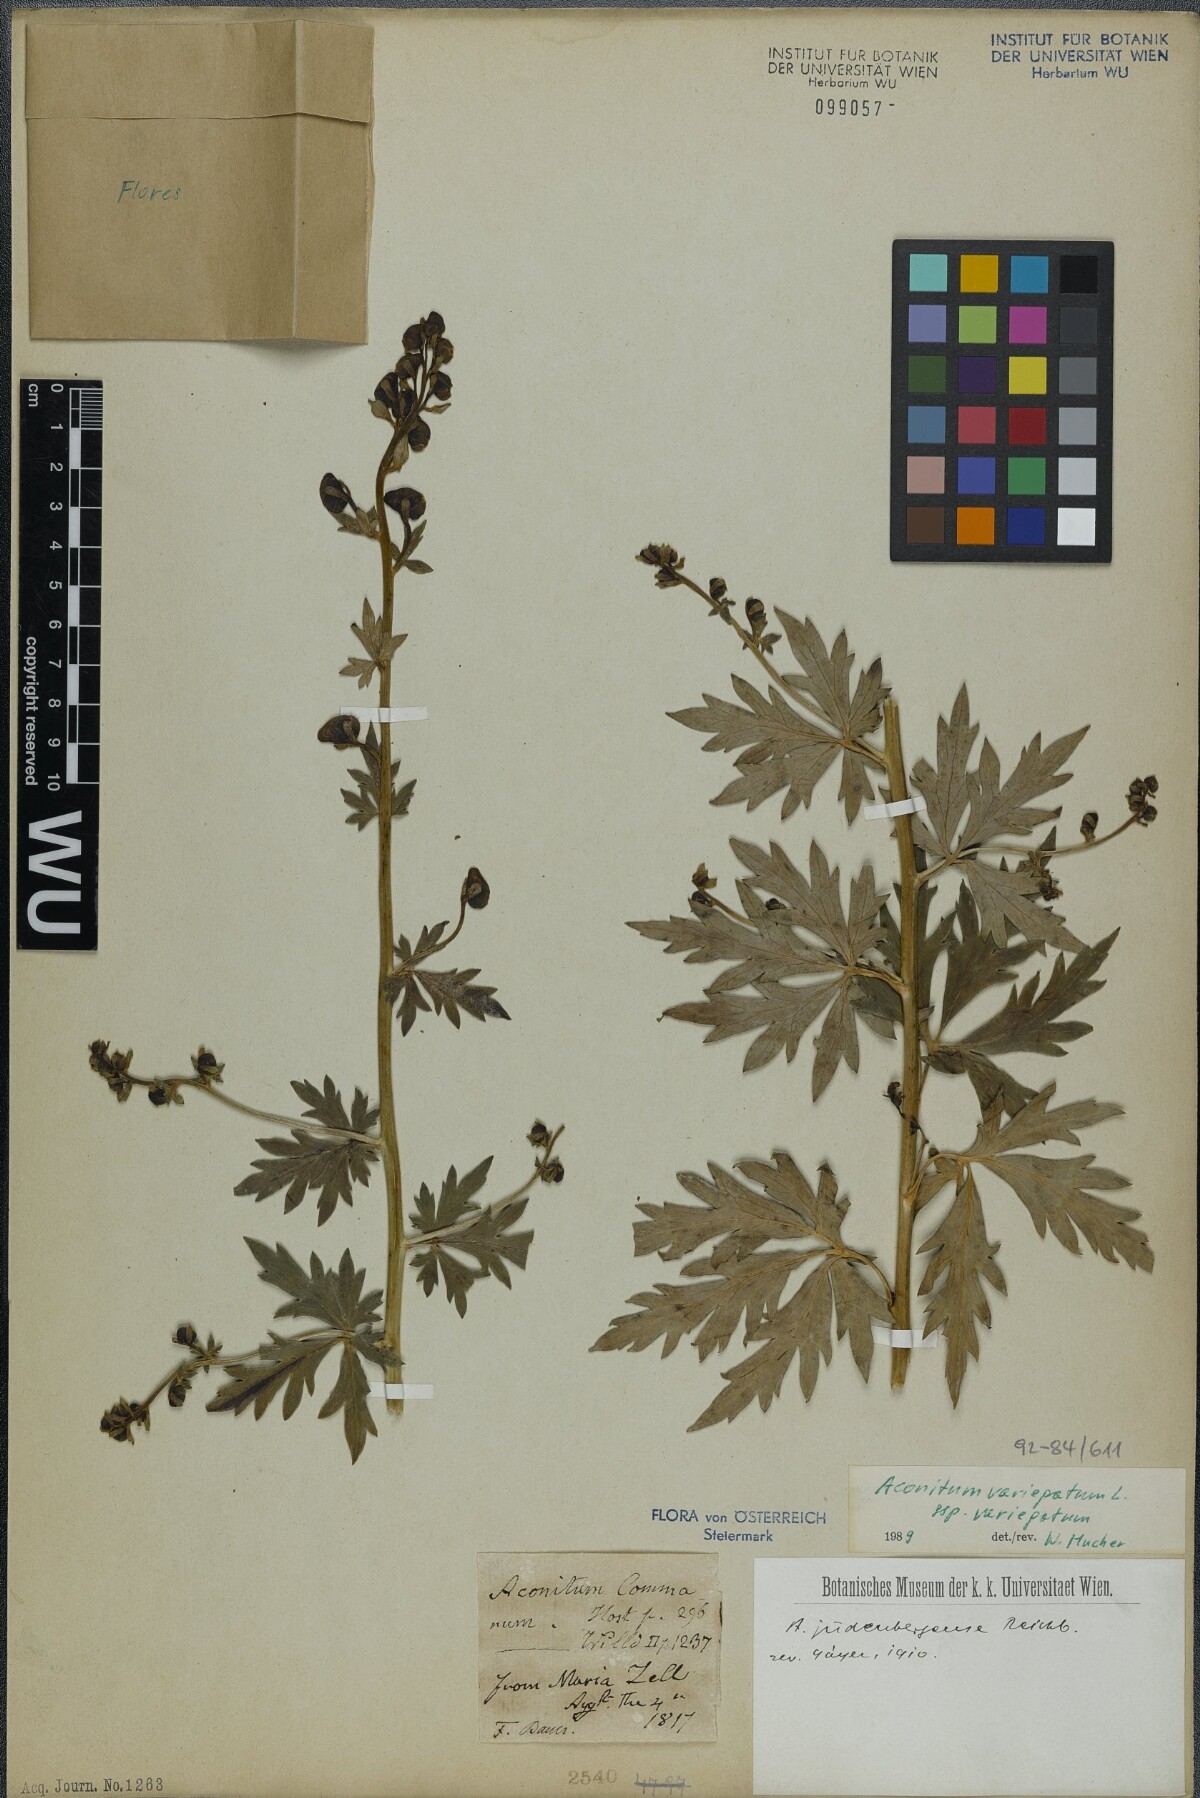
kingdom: Plantae
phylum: Tracheophyta
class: Magnoliopsida
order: Ranunculales
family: Ranunculaceae
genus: Aconitum
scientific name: Aconitum variegatum
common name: Manchurian monkshood
